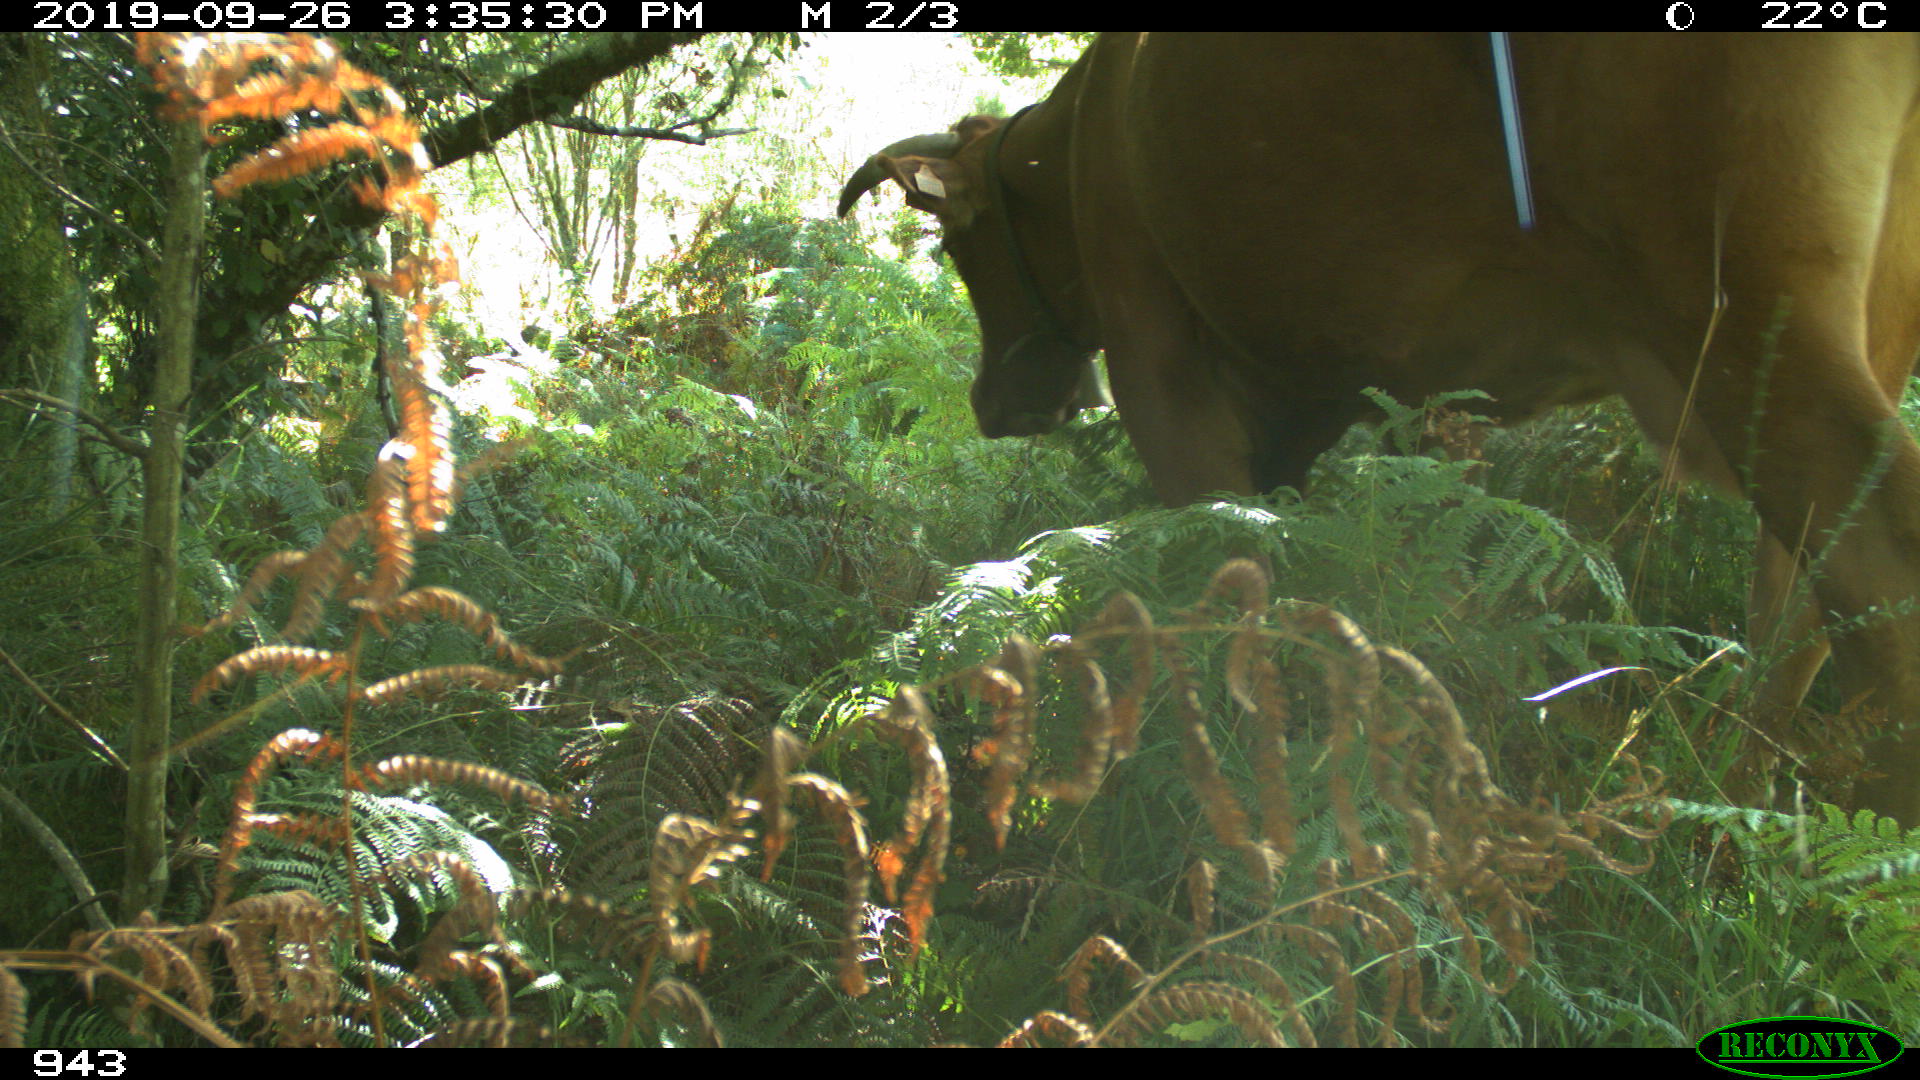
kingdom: Animalia
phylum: Chordata
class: Mammalia
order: Artiodactyla
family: Bovidae
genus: Bos
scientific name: Bos taurus
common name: Domesticated cattle
